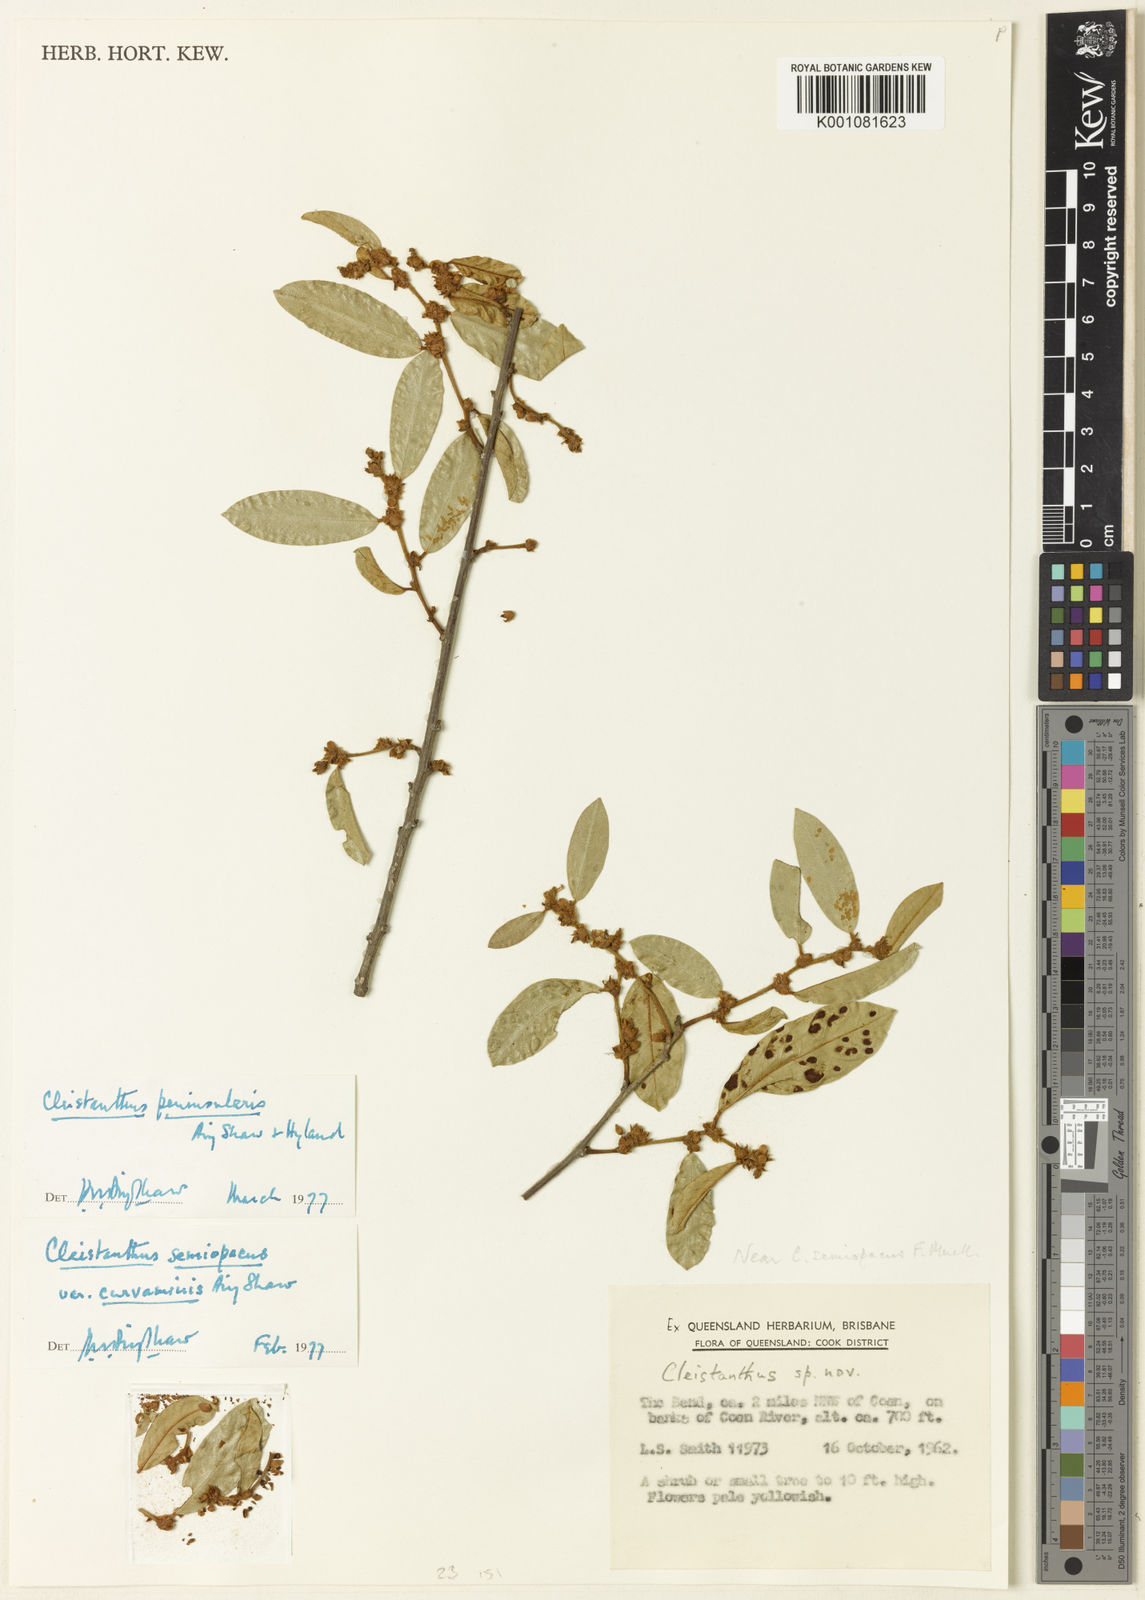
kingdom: Plantae
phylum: Tracheophyta
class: Magnoliopsida
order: Malpighiales
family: Phyllanthaceae
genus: Cleistanthus
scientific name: Cleistanthus peninsularis
